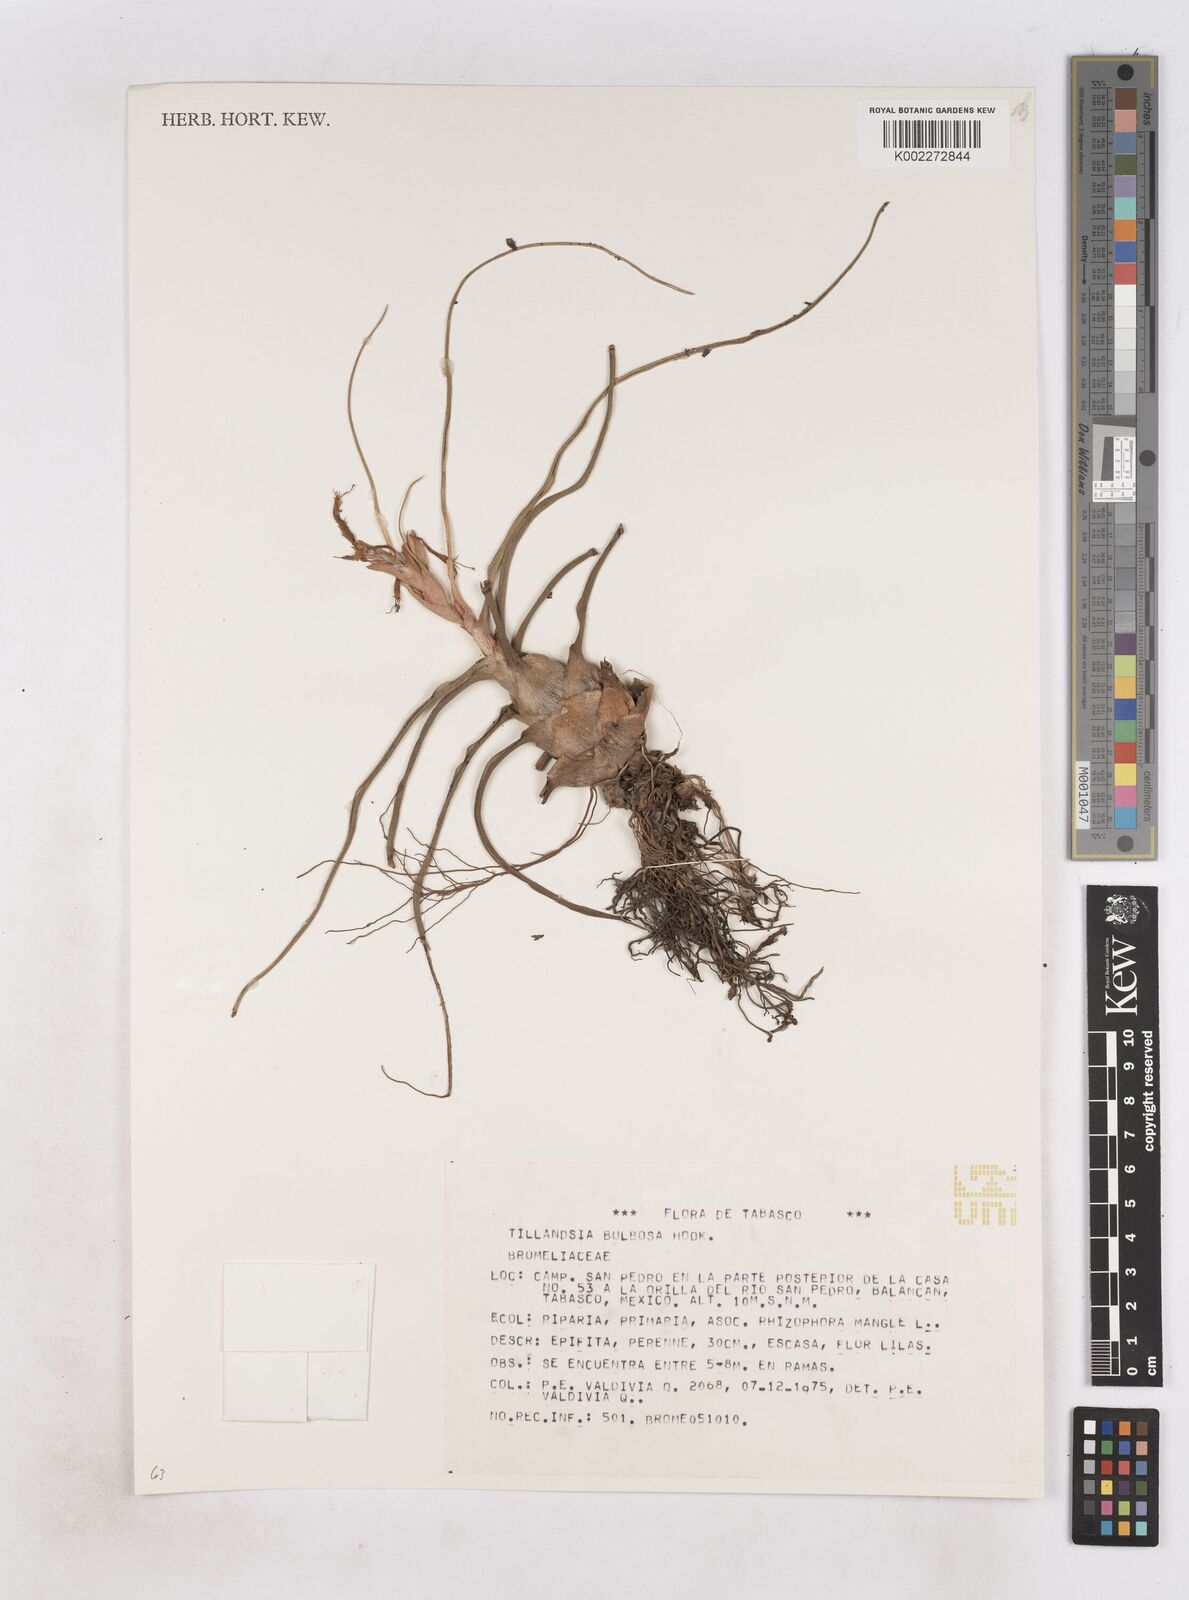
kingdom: Plantae
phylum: Tracheophyta
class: Liliopsida
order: Poales
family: Bromeliaceae
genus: Tillandsia
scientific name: Tillandsia bulbosa
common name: Bulbous airplant
